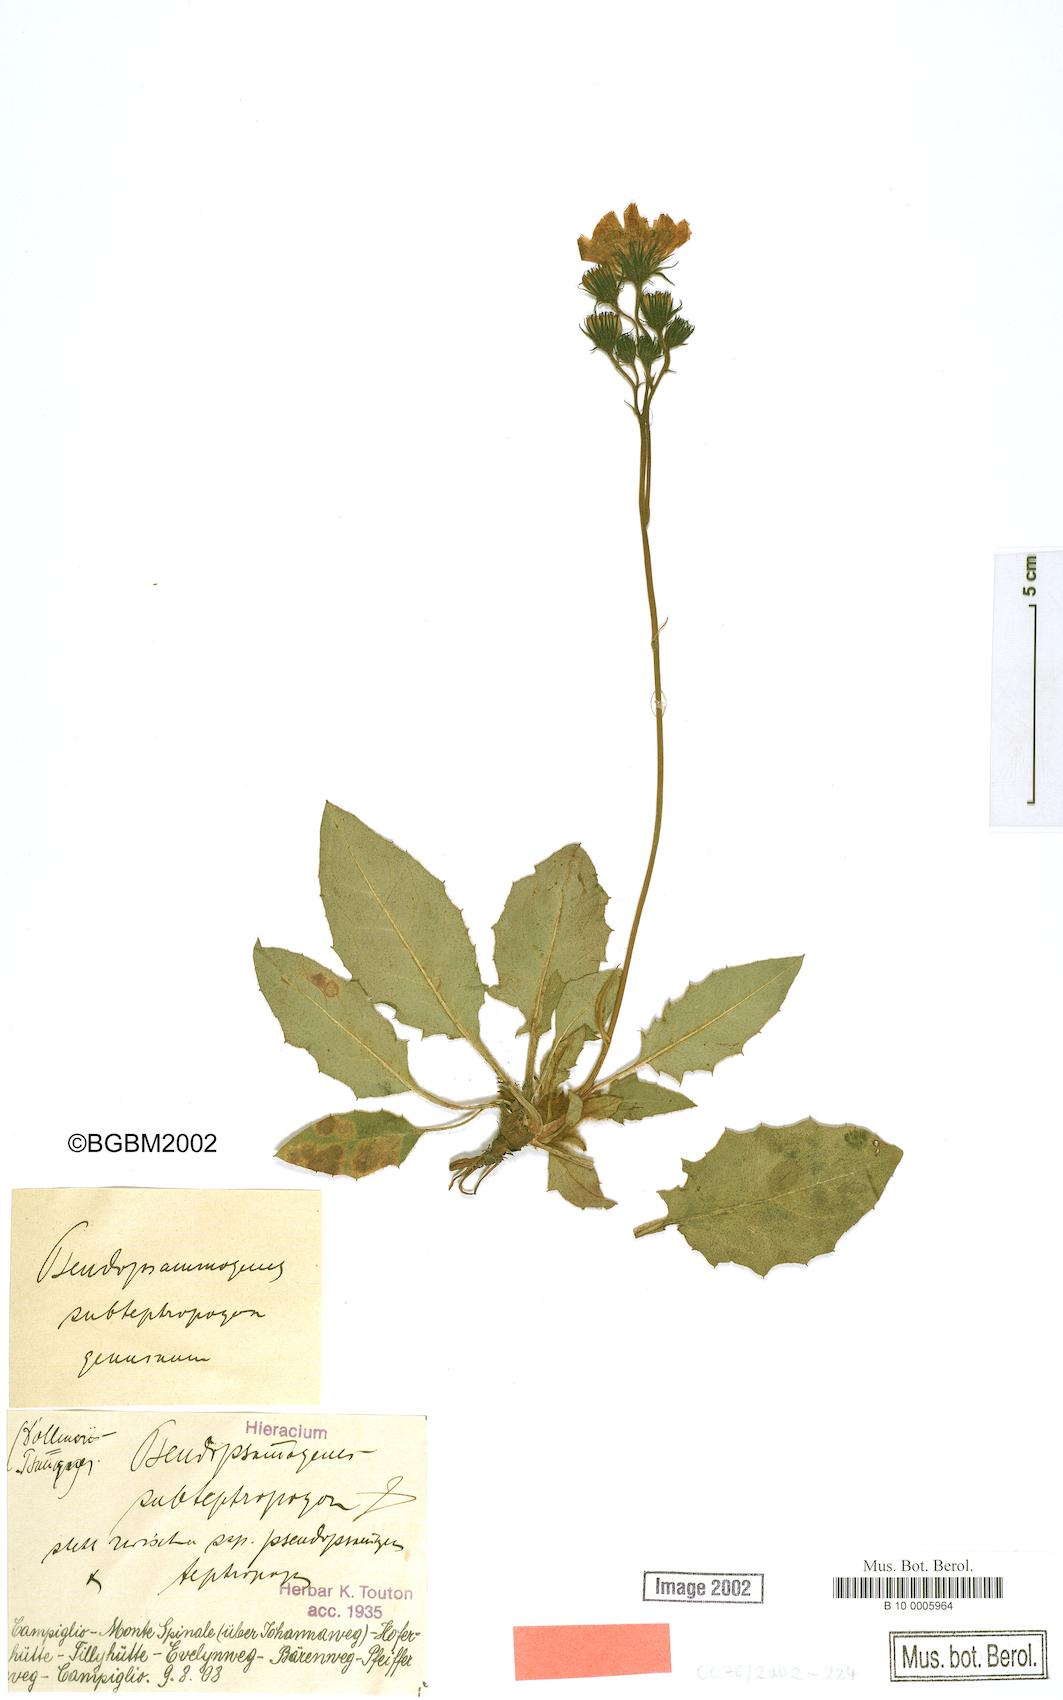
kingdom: Plantae
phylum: Tracheophyta
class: Magnoliopsida
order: Asterales
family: Asteraceae
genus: Hieracium
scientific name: Hieracium bifidum
